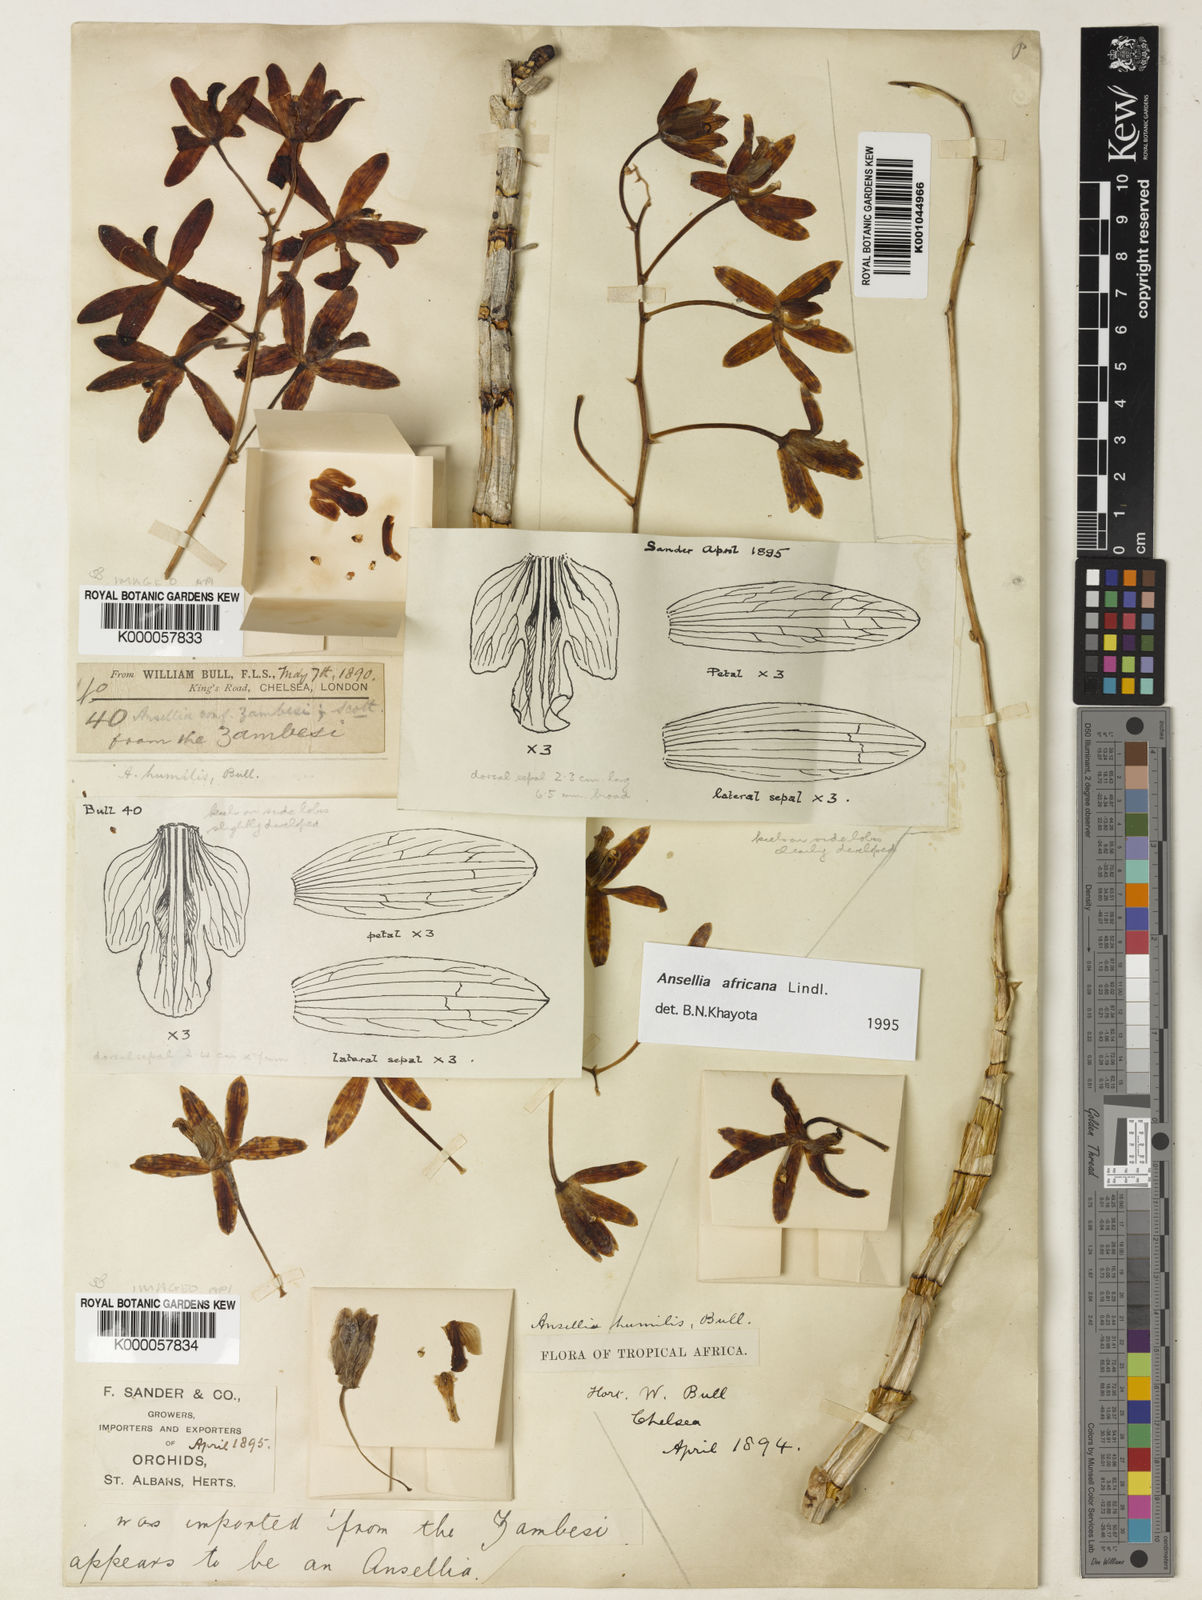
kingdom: Plantae
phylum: Tracheophyta
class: Liliopsida
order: Asparagales
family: Orchidaceae
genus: Ansellia
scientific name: Ansellia africana
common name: African ansellia
